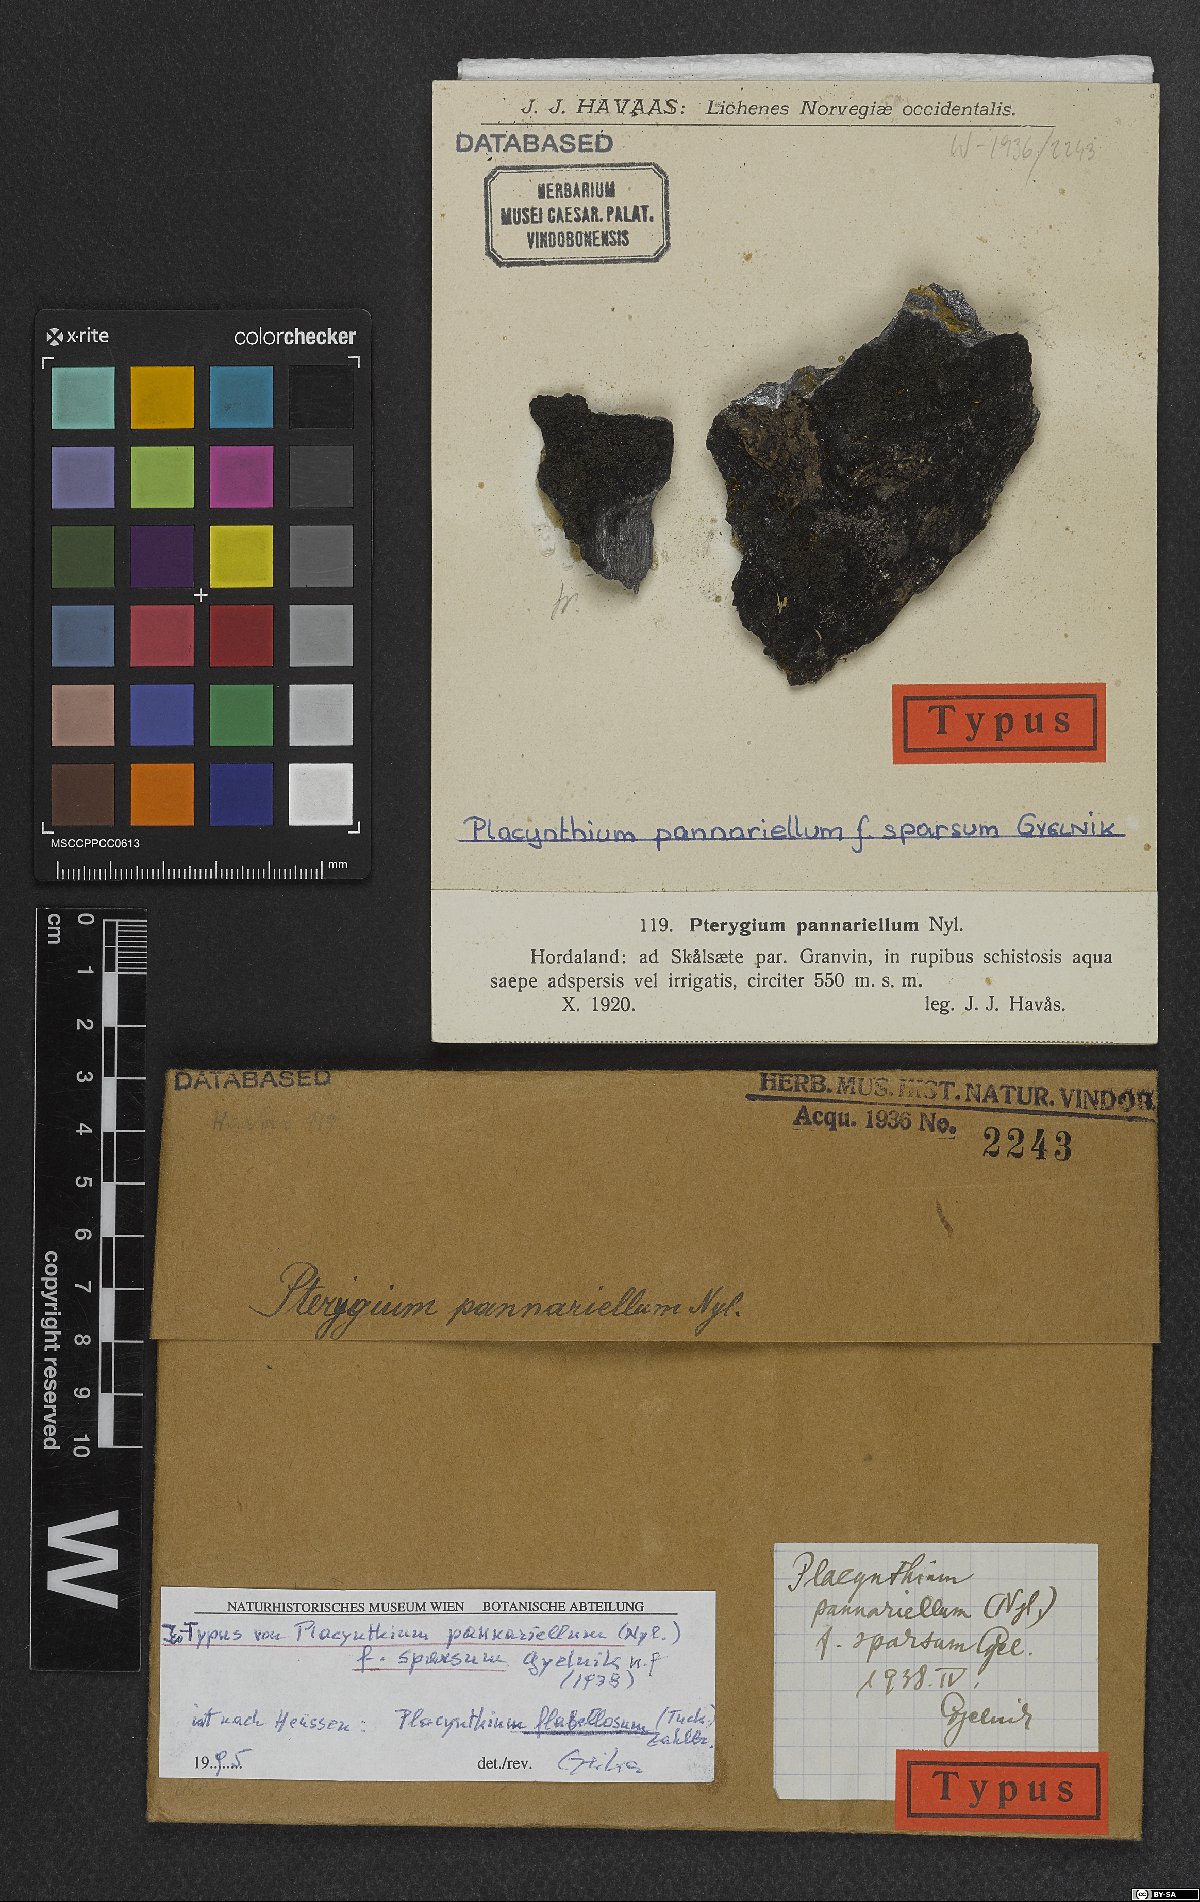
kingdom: Fungi
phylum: Ascomycota
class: Lecanoromycetes
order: Peltigerales
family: Placynthiaceae
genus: Placynthium
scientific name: Placynthium pannariellum
